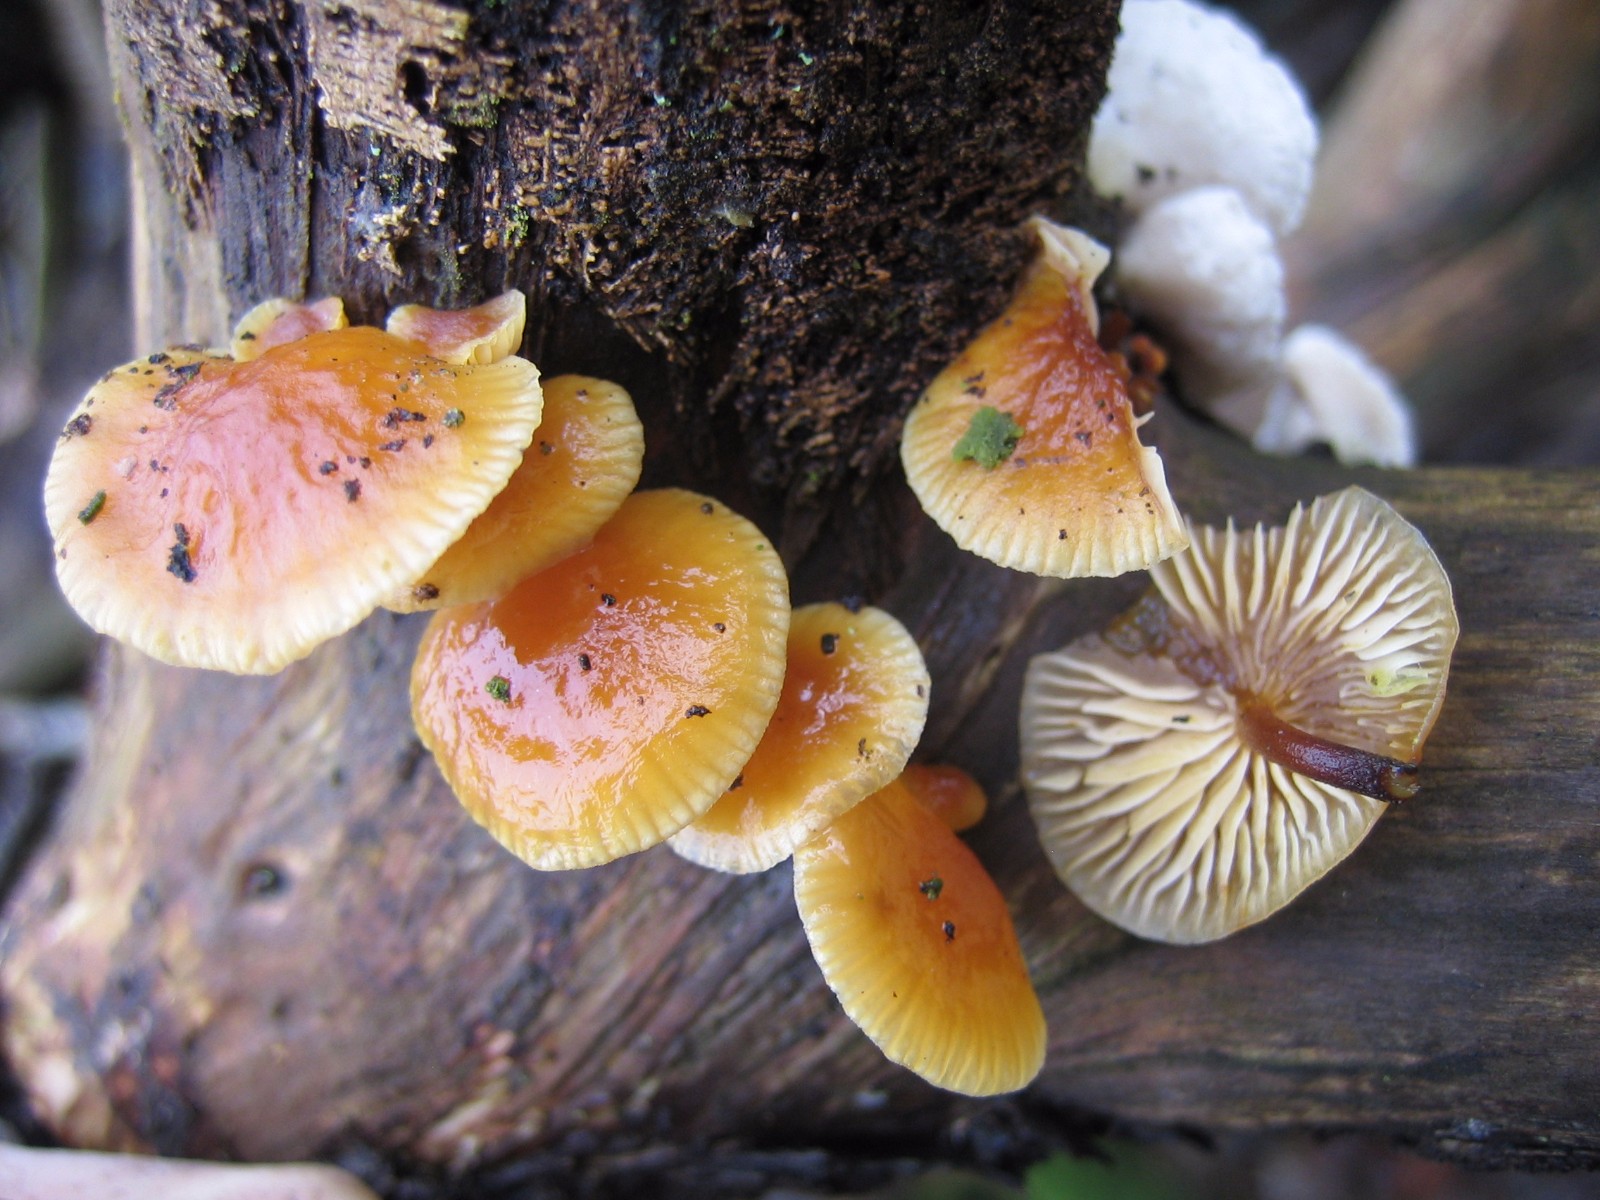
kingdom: Fungi
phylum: Basidiomycota
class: Agaricomycetes
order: Agaricales
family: Physalacriaceae
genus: Flammulina
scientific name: Flammulina velutipes
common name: gul fløjlsfod
